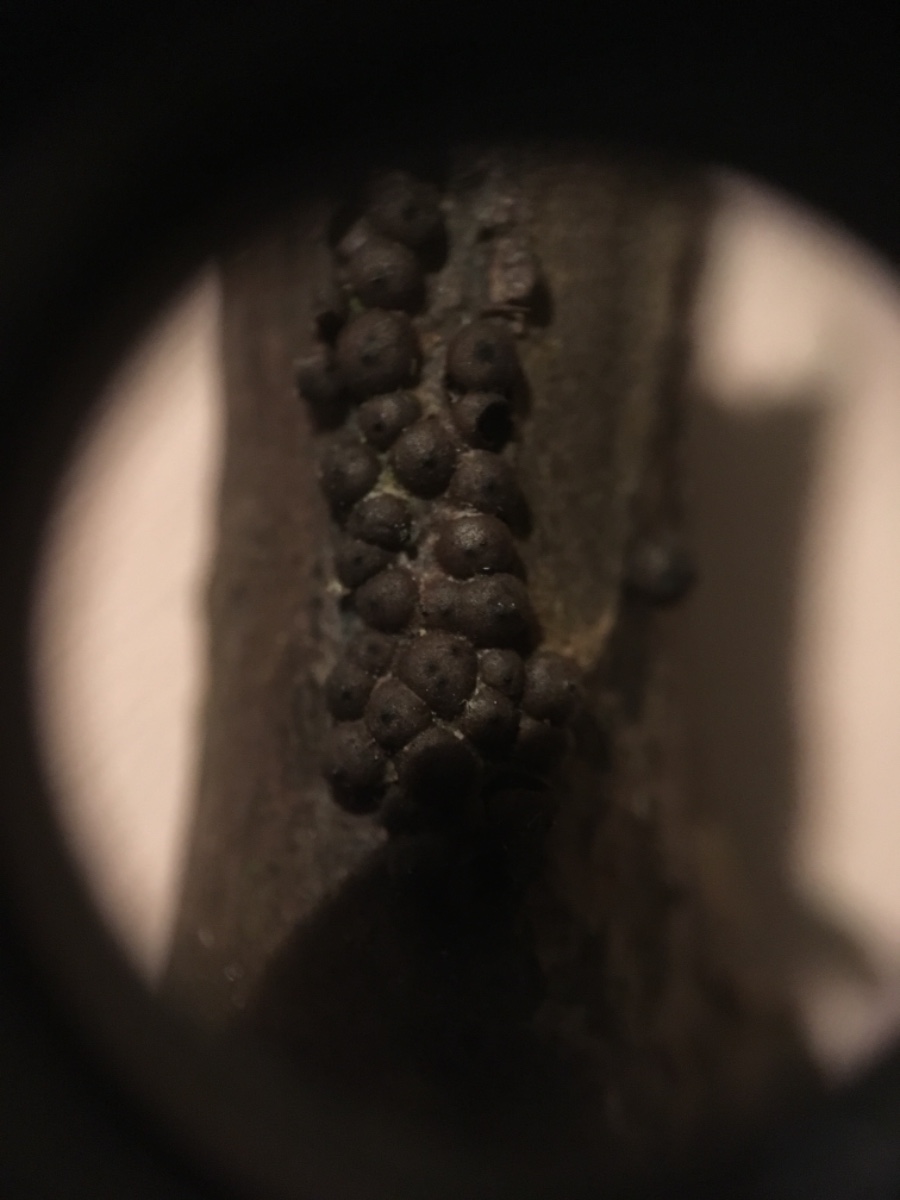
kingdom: Fungi
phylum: Ascomycota
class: Sordariomycetes
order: Xylariales
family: Xylariaceae
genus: Rosellinia
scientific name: Rosellinia
